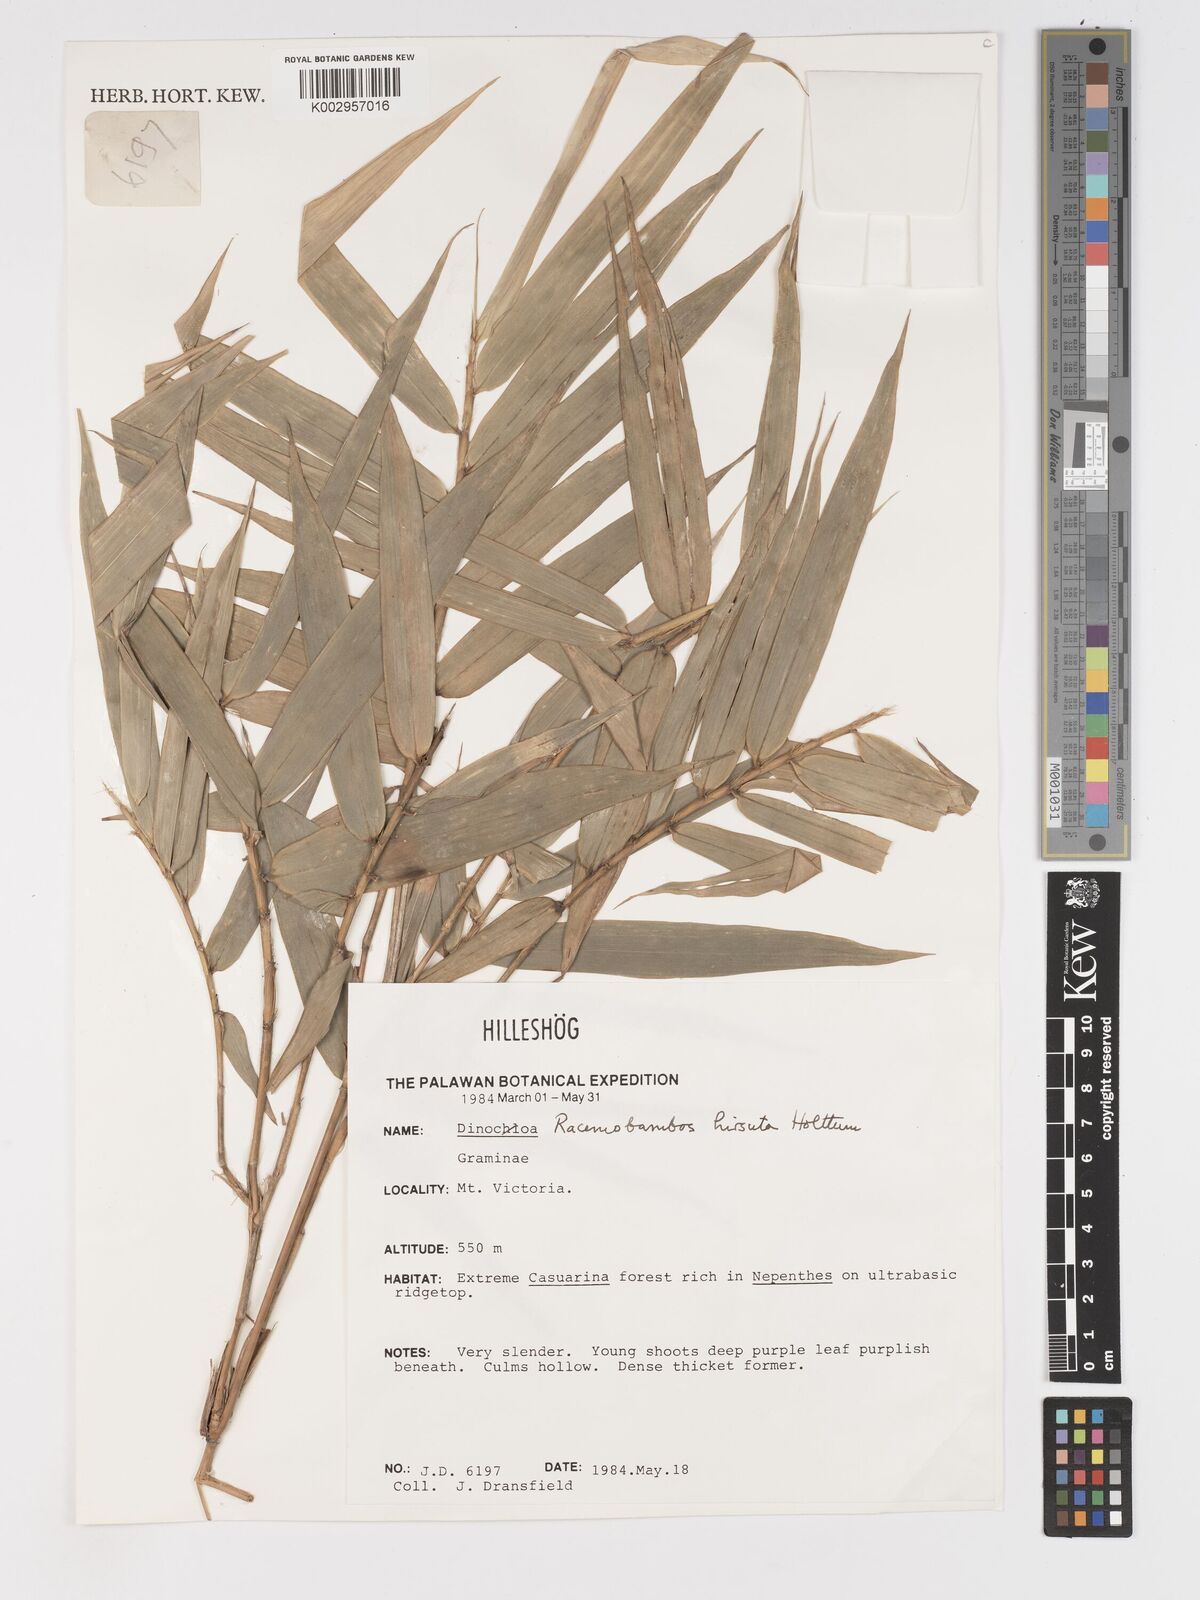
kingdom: Plantae
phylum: Tracheophyta
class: Liliopsida
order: Poales
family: Poaceae
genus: Racemobambos
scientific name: Racemobambos
